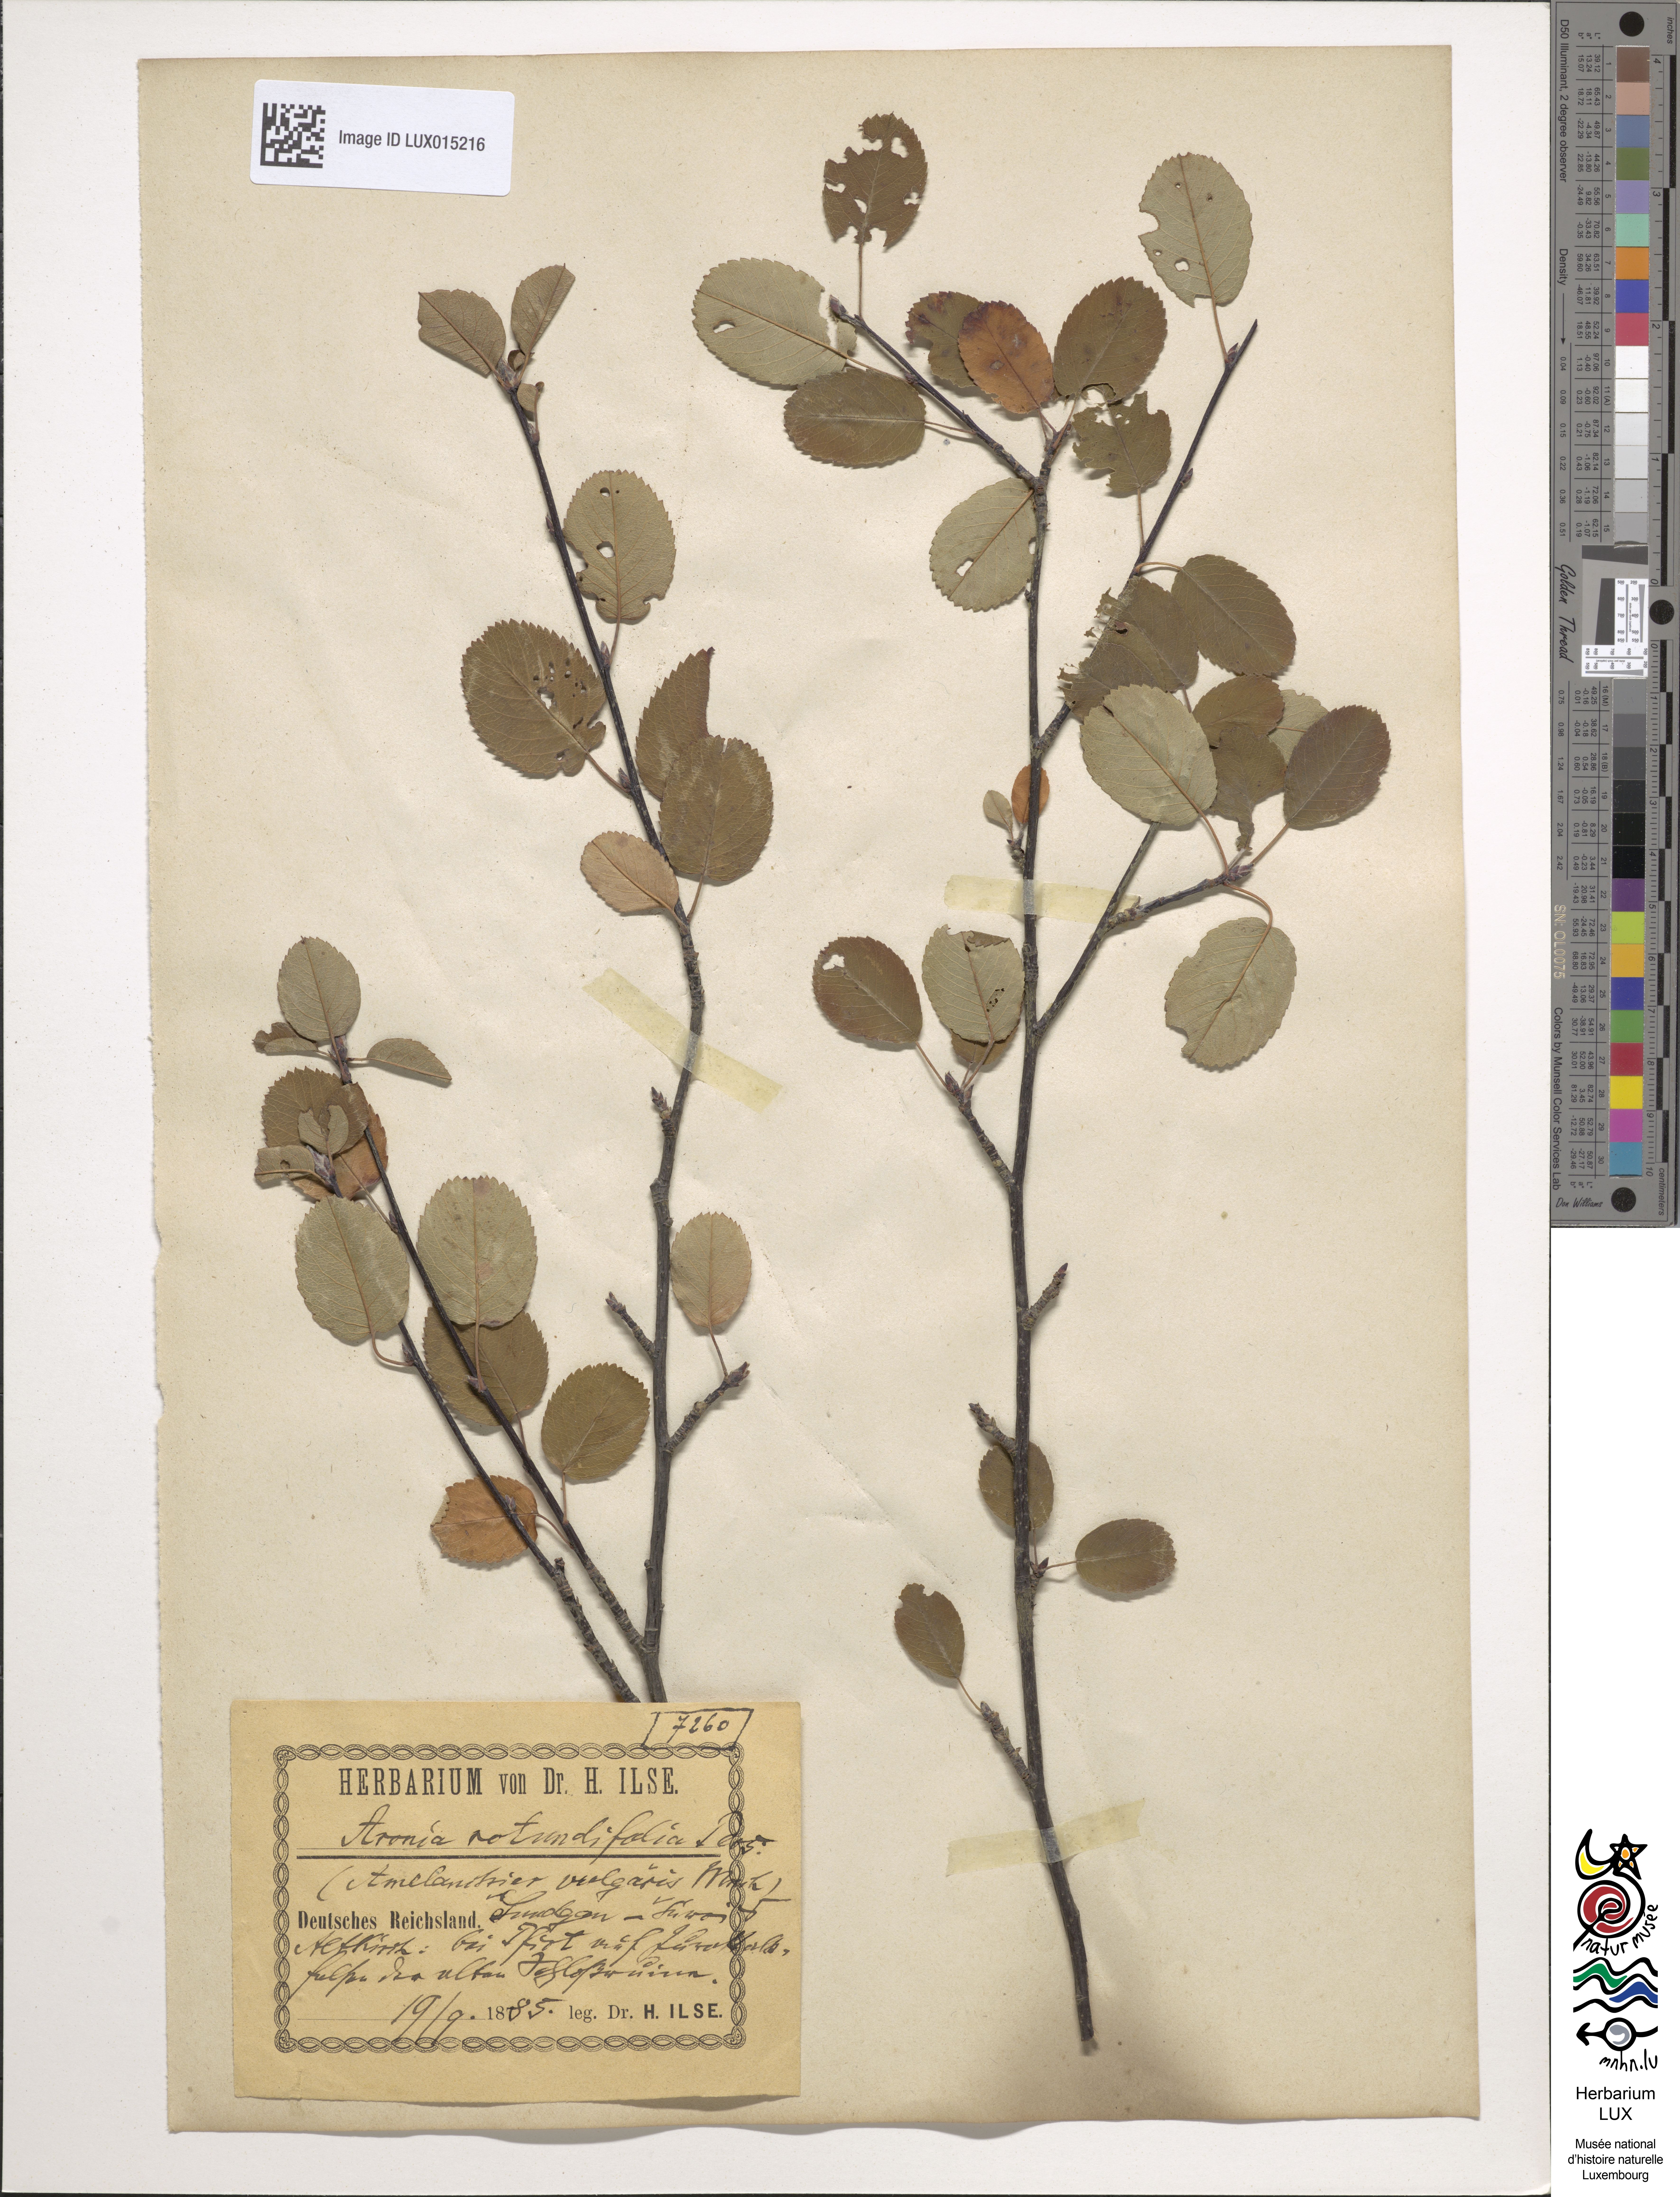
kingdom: Plantae
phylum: Tracheophyta
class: Magnoliopsida
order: Rosales
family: Rosaceae
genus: Amelanchier
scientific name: Amelanchier ovalis
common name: Serviceberry
